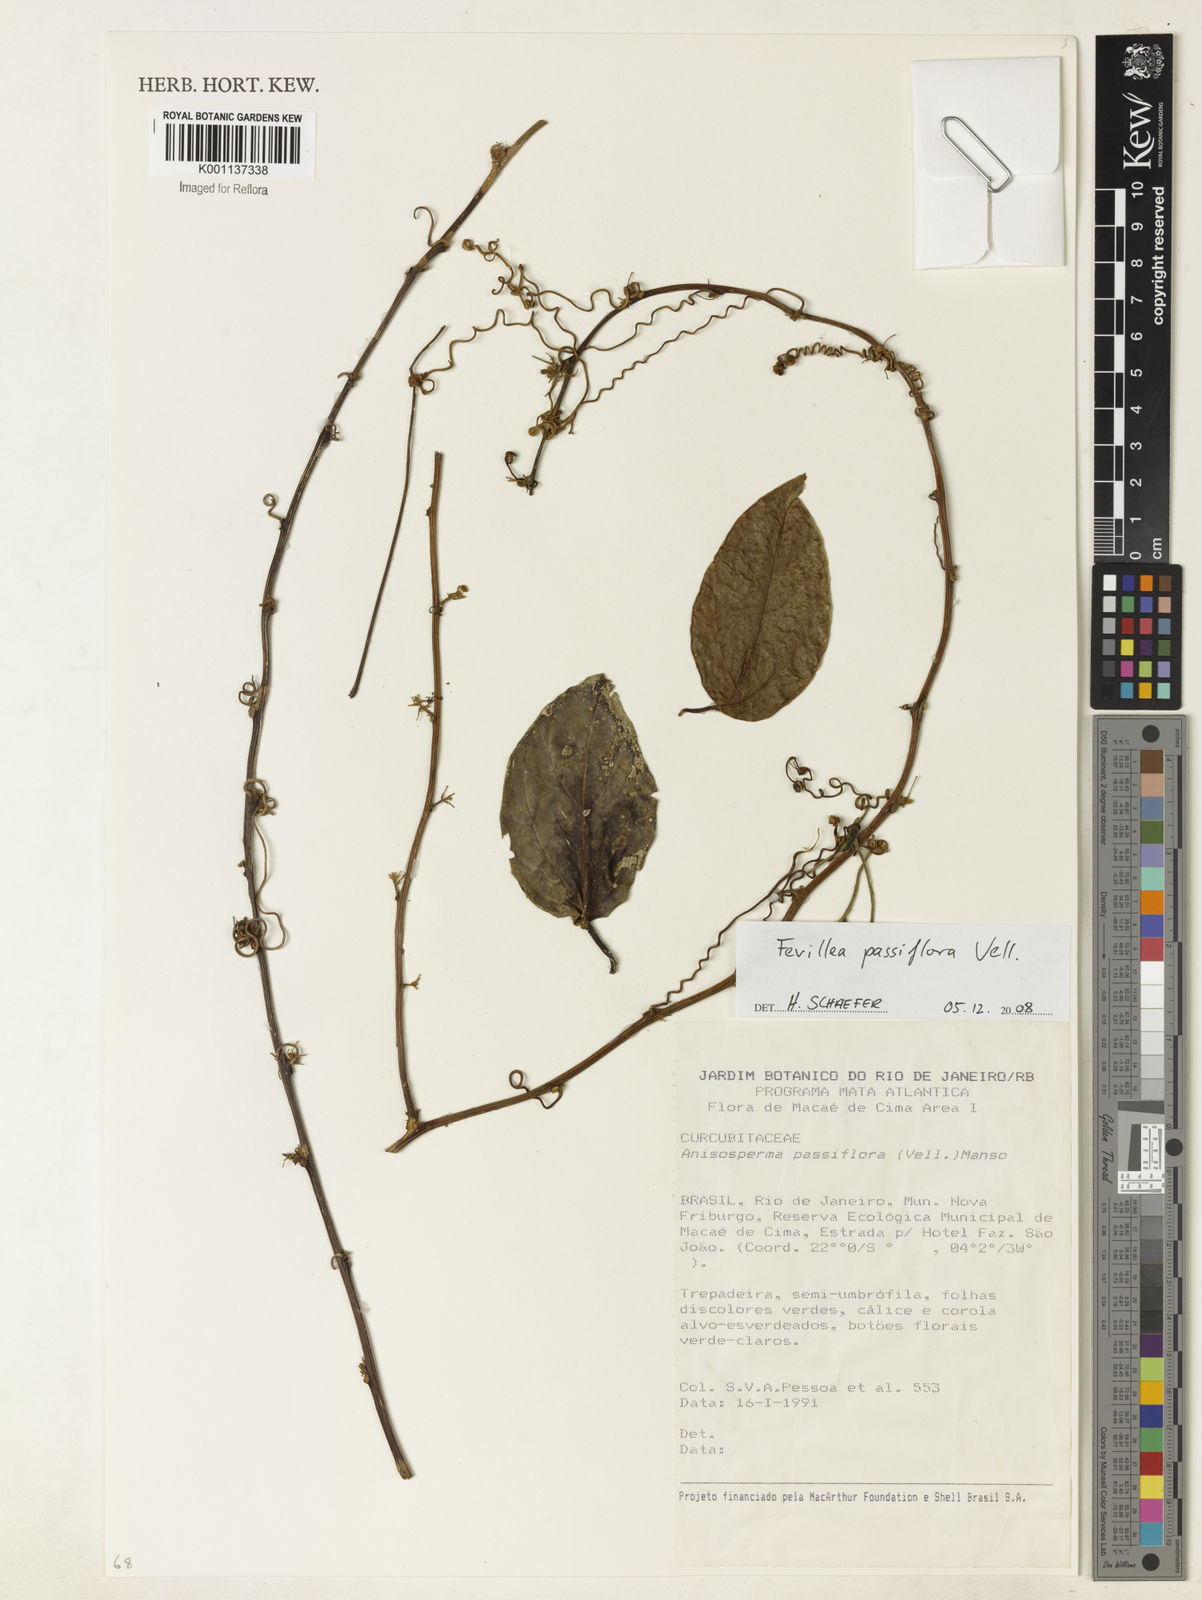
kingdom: Plantae
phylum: Tracheophyta
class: Magnoliopsida
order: Cucurbitales
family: Cucurbitaceae
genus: Anisosperma
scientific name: Anisosperma passiflora
